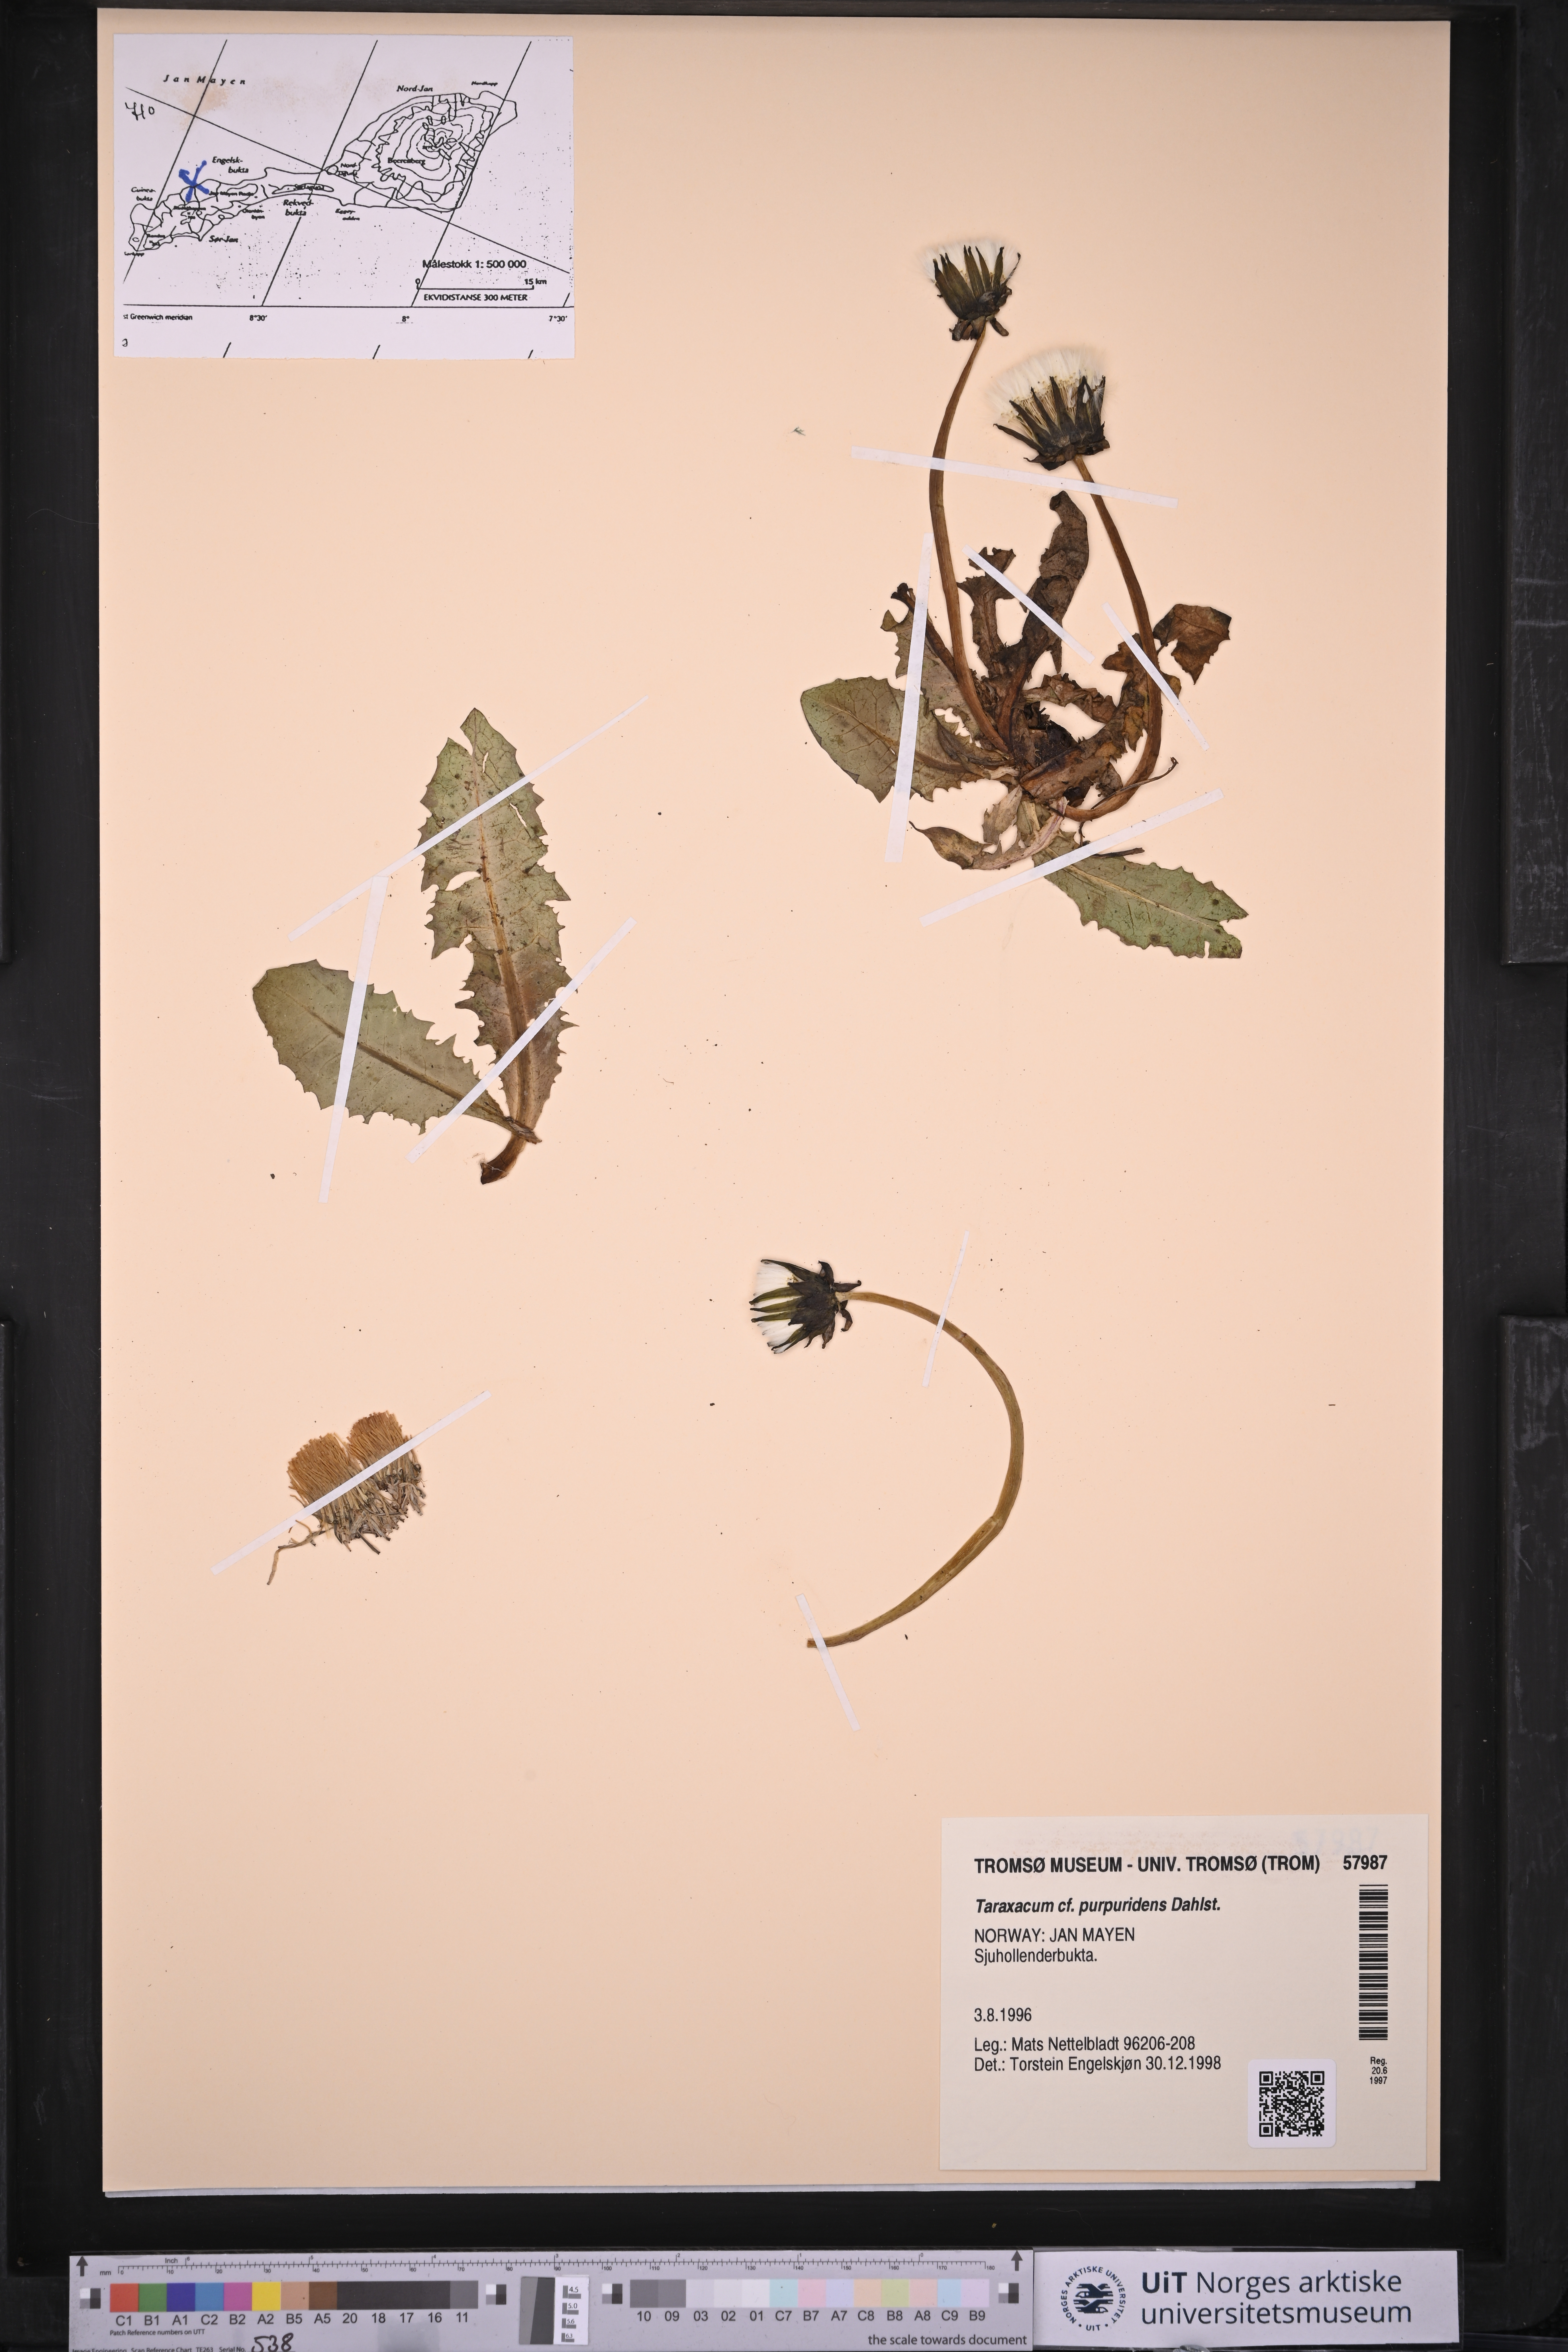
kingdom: Plantae
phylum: Tracheophyta
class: Magnoliopsida
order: Asterales
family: Asteraceae
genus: Taraxacum
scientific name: Taraxacum purpuridens
